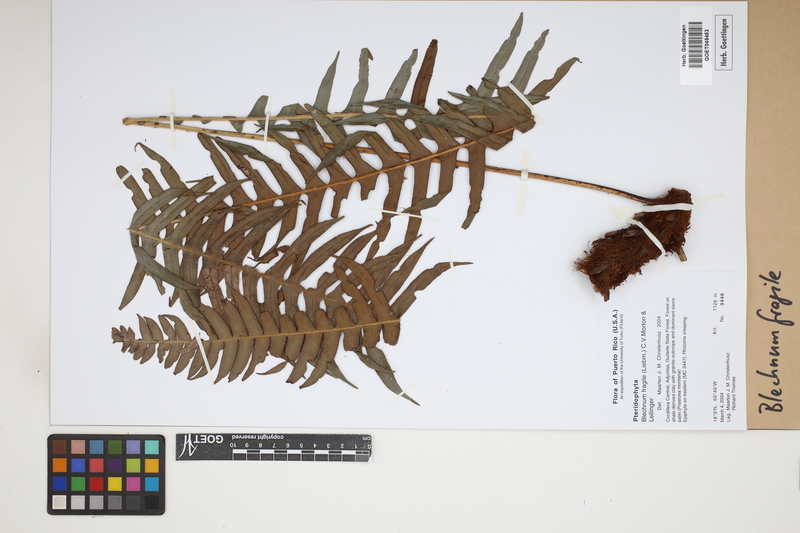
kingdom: Plantae
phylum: Tracheophyta
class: Polypodiopsida
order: Polypodiales
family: Blechnaceae
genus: Lomaridium
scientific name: Lomaridium fragile
